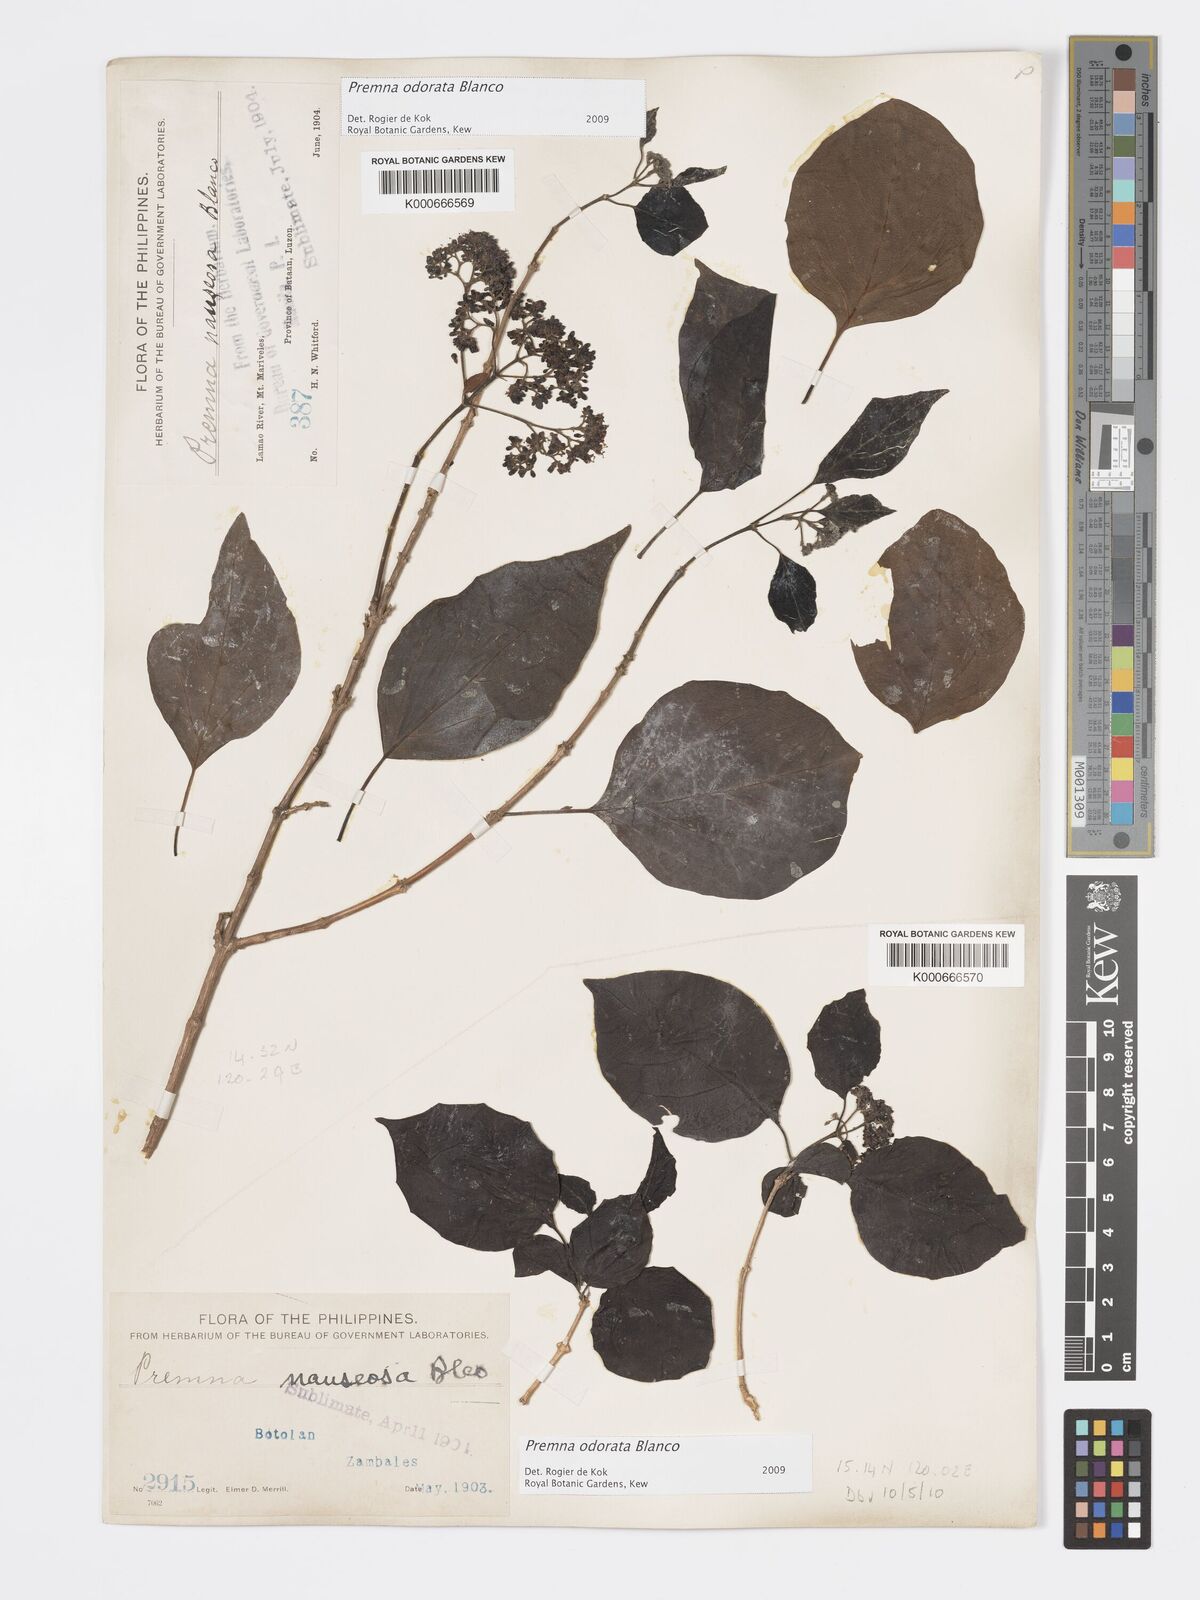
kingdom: Plantae
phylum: Tracheophyta
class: Magnoliopsida
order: Lamiales
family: Lamiaceae
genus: Premna
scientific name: Premna odorata
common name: Fragrant premna
